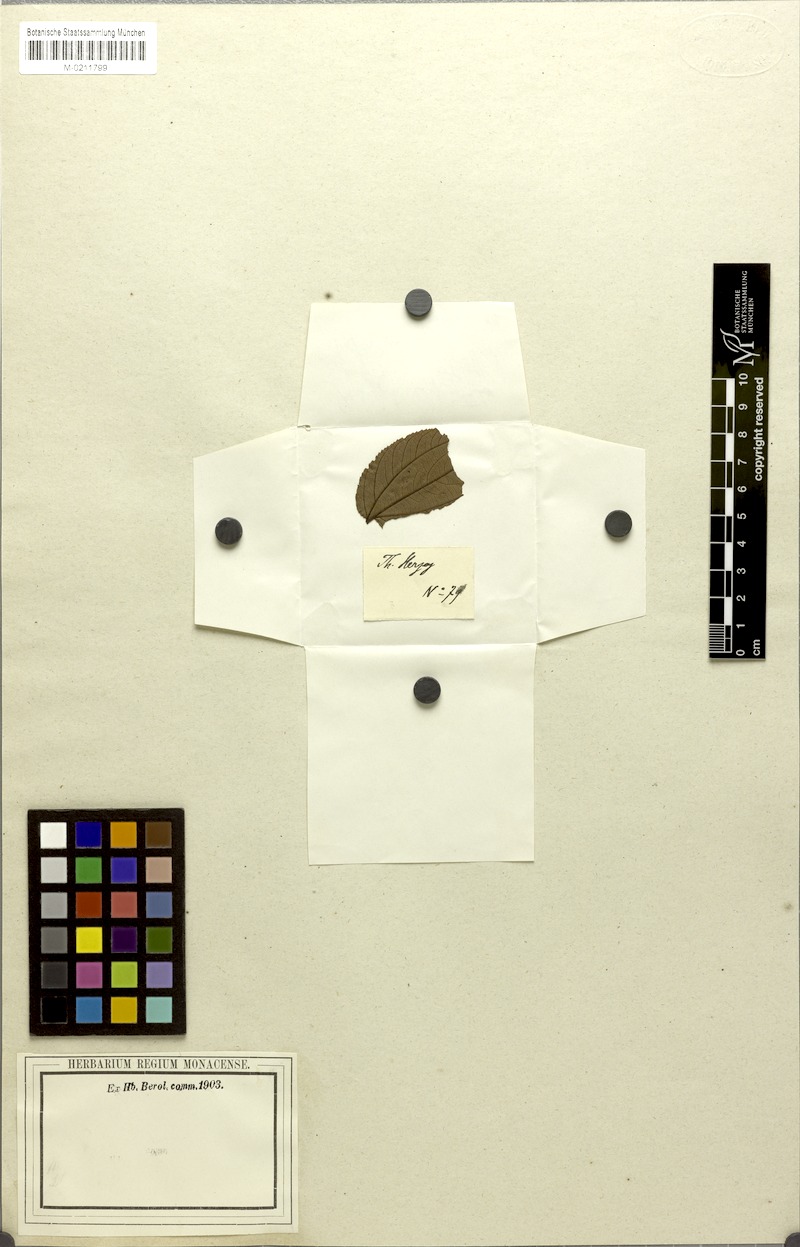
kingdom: Plantae
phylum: Tracheophyta
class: Magnoliopsida
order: Rosales
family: Rhamnaceae
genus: Ziziphus
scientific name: Ziziphus apetala
